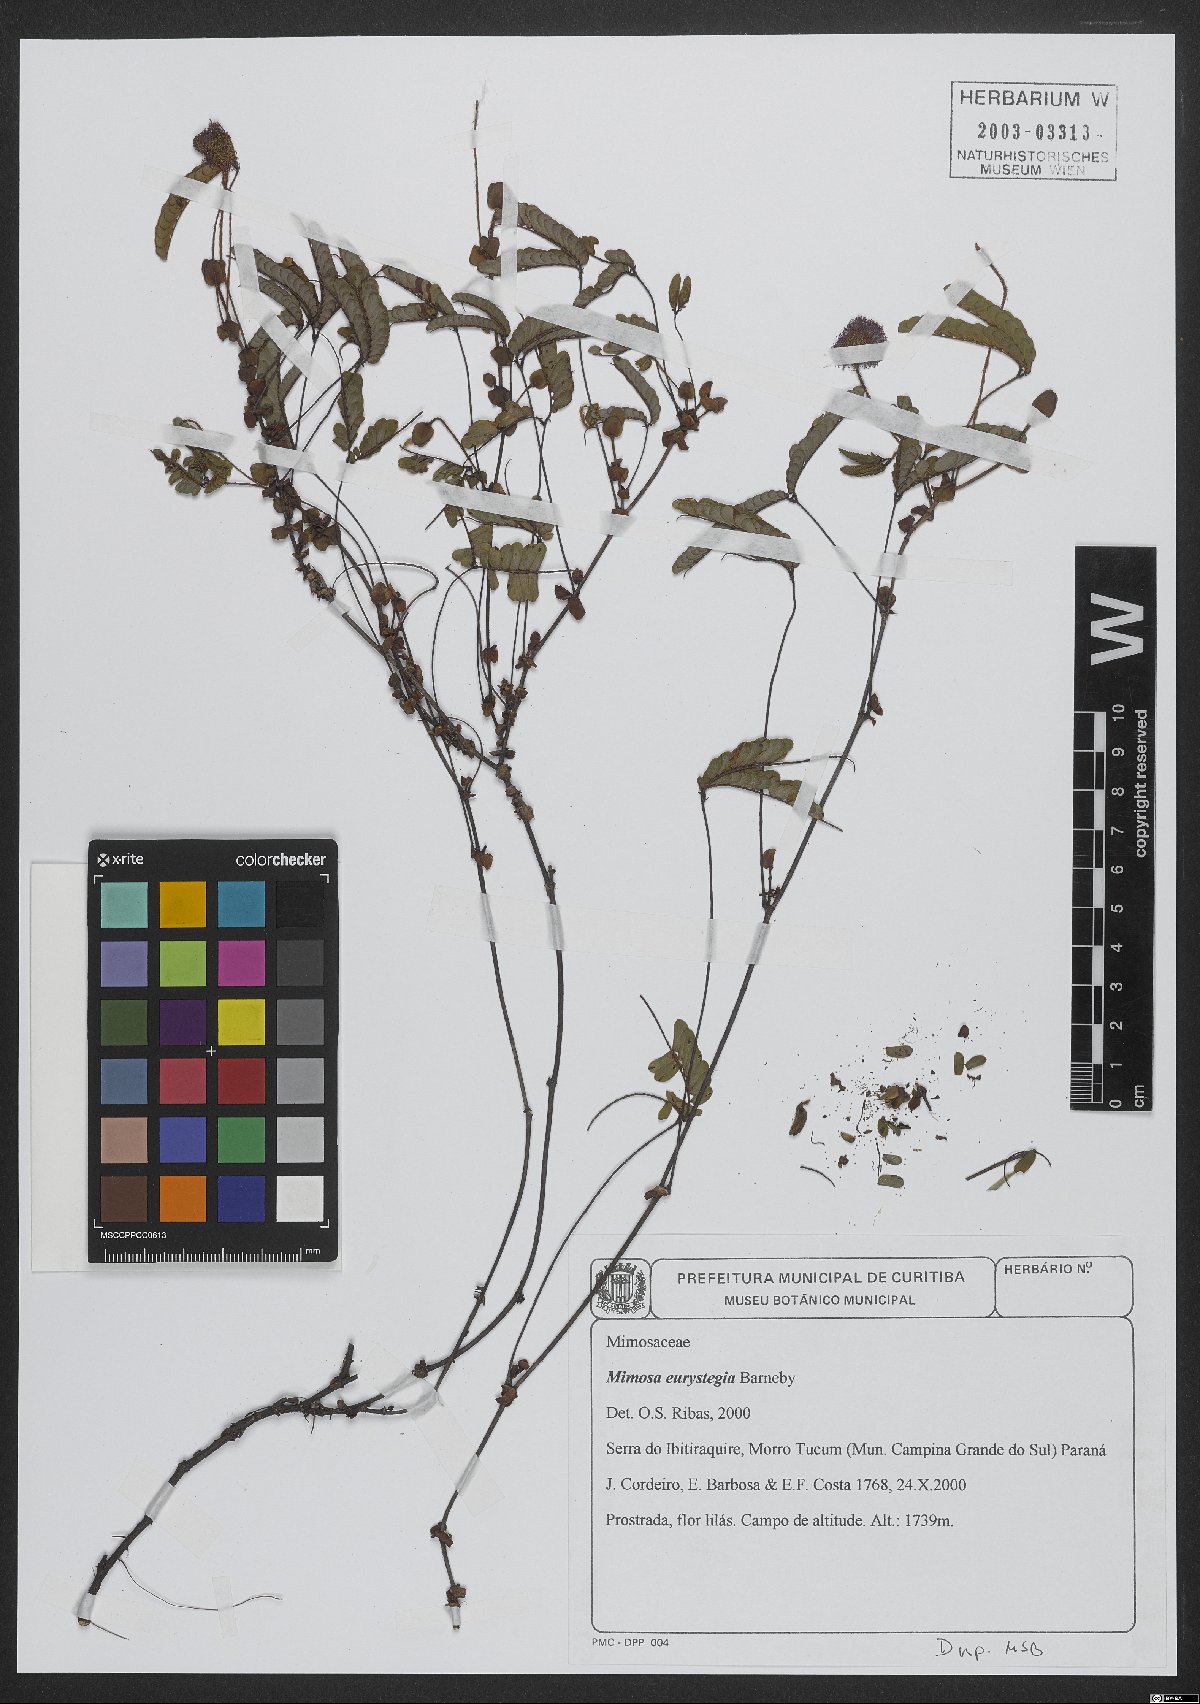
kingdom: Plantae
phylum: Tracheophyta
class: Magnoliopsida
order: Fabales
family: Fabaceae
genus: Mimosa
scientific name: Mimosa eurystegia
